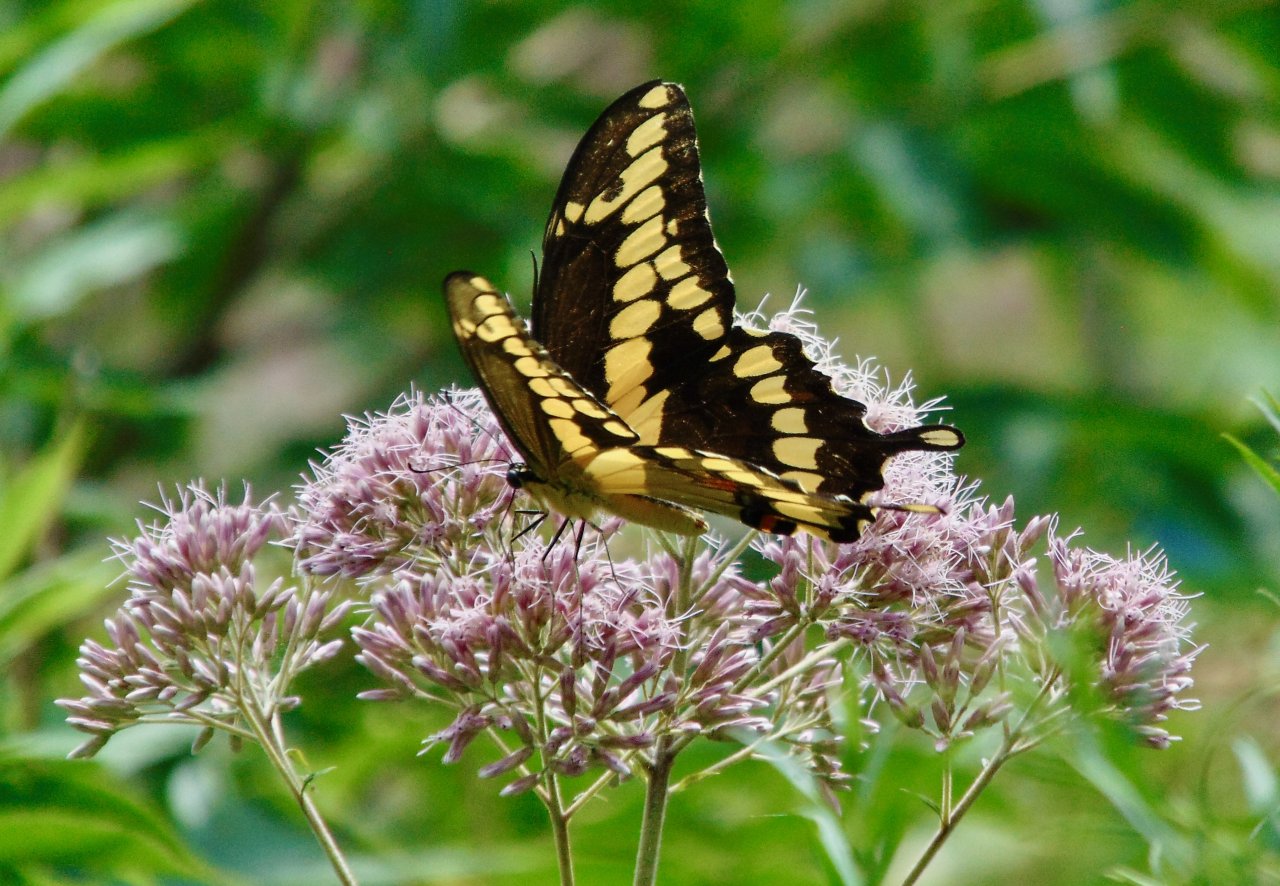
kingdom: Animalia
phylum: Arthropoda
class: Insecta
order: Lepidoptera
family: Papilionidae
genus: Papilio
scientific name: Papilio cresphontes
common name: Eastern Giant Swallowtail
